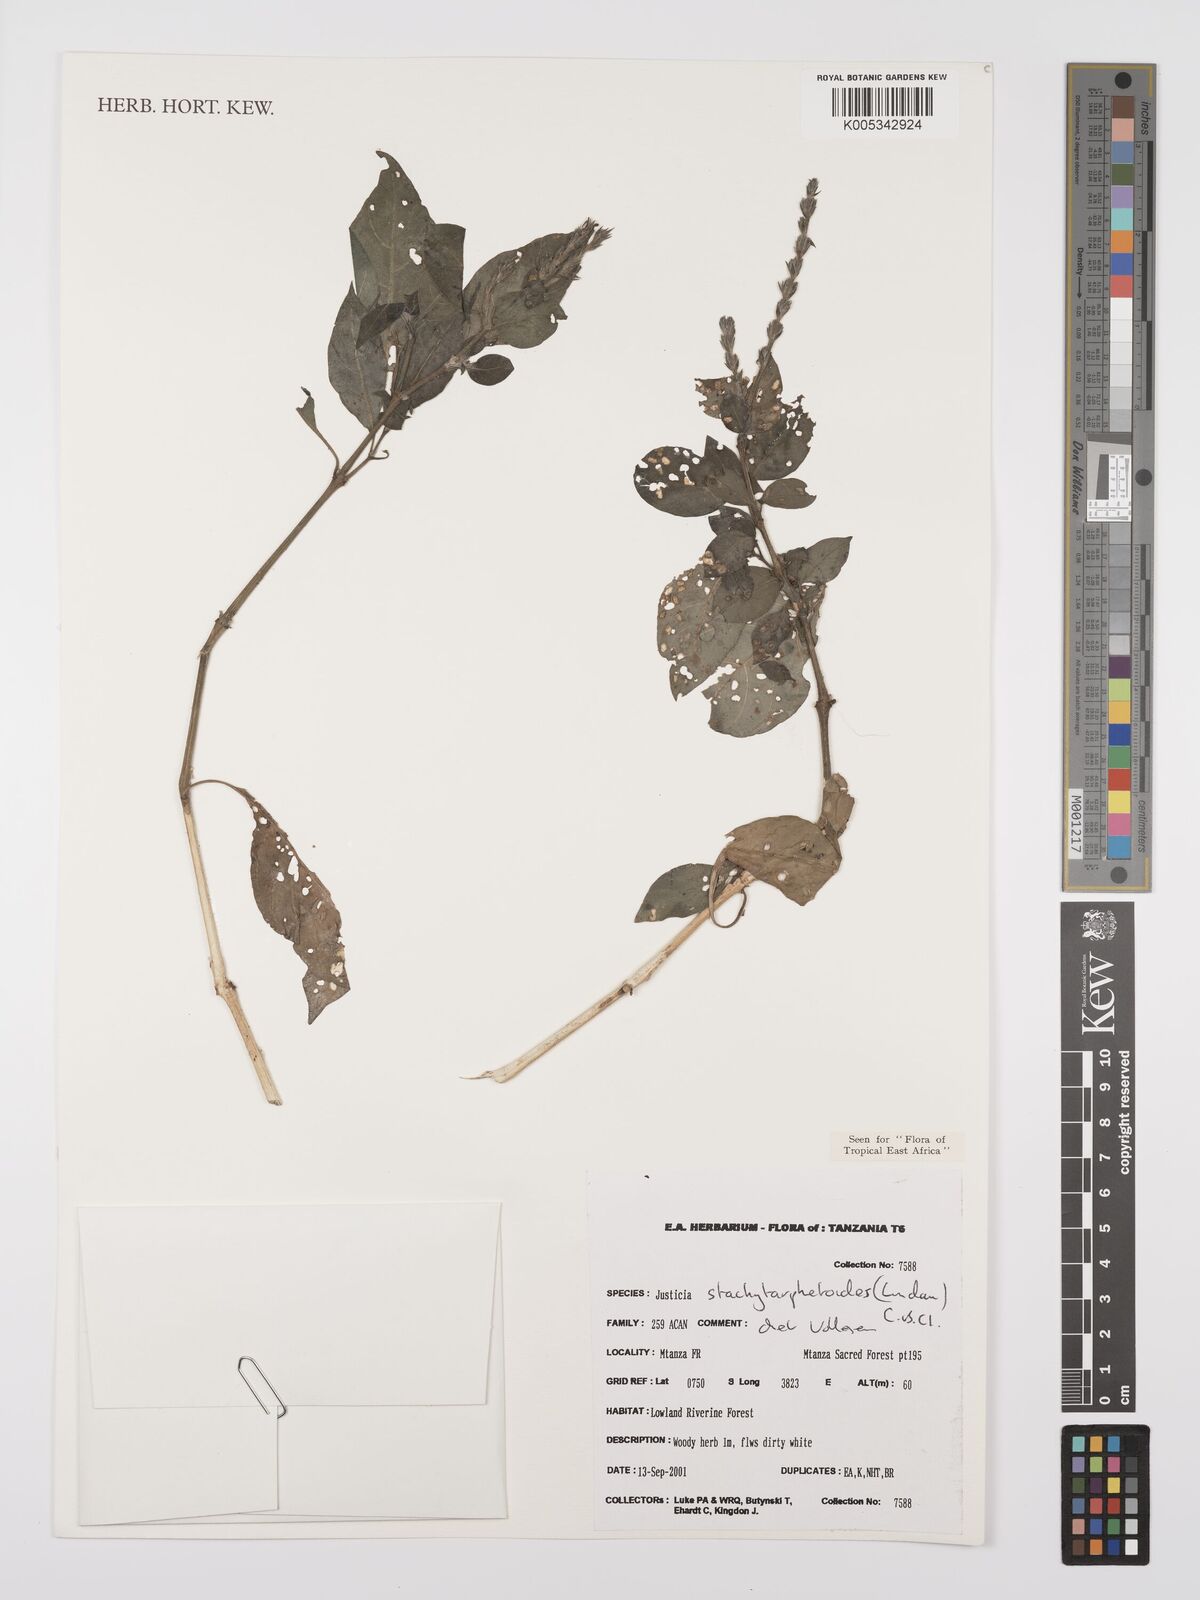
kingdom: Plantae
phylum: Tracheophyta
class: Magnoliopsida
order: Lamiales
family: Acanthaceae
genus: Justicia
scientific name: Justicia stachytarphetoides
